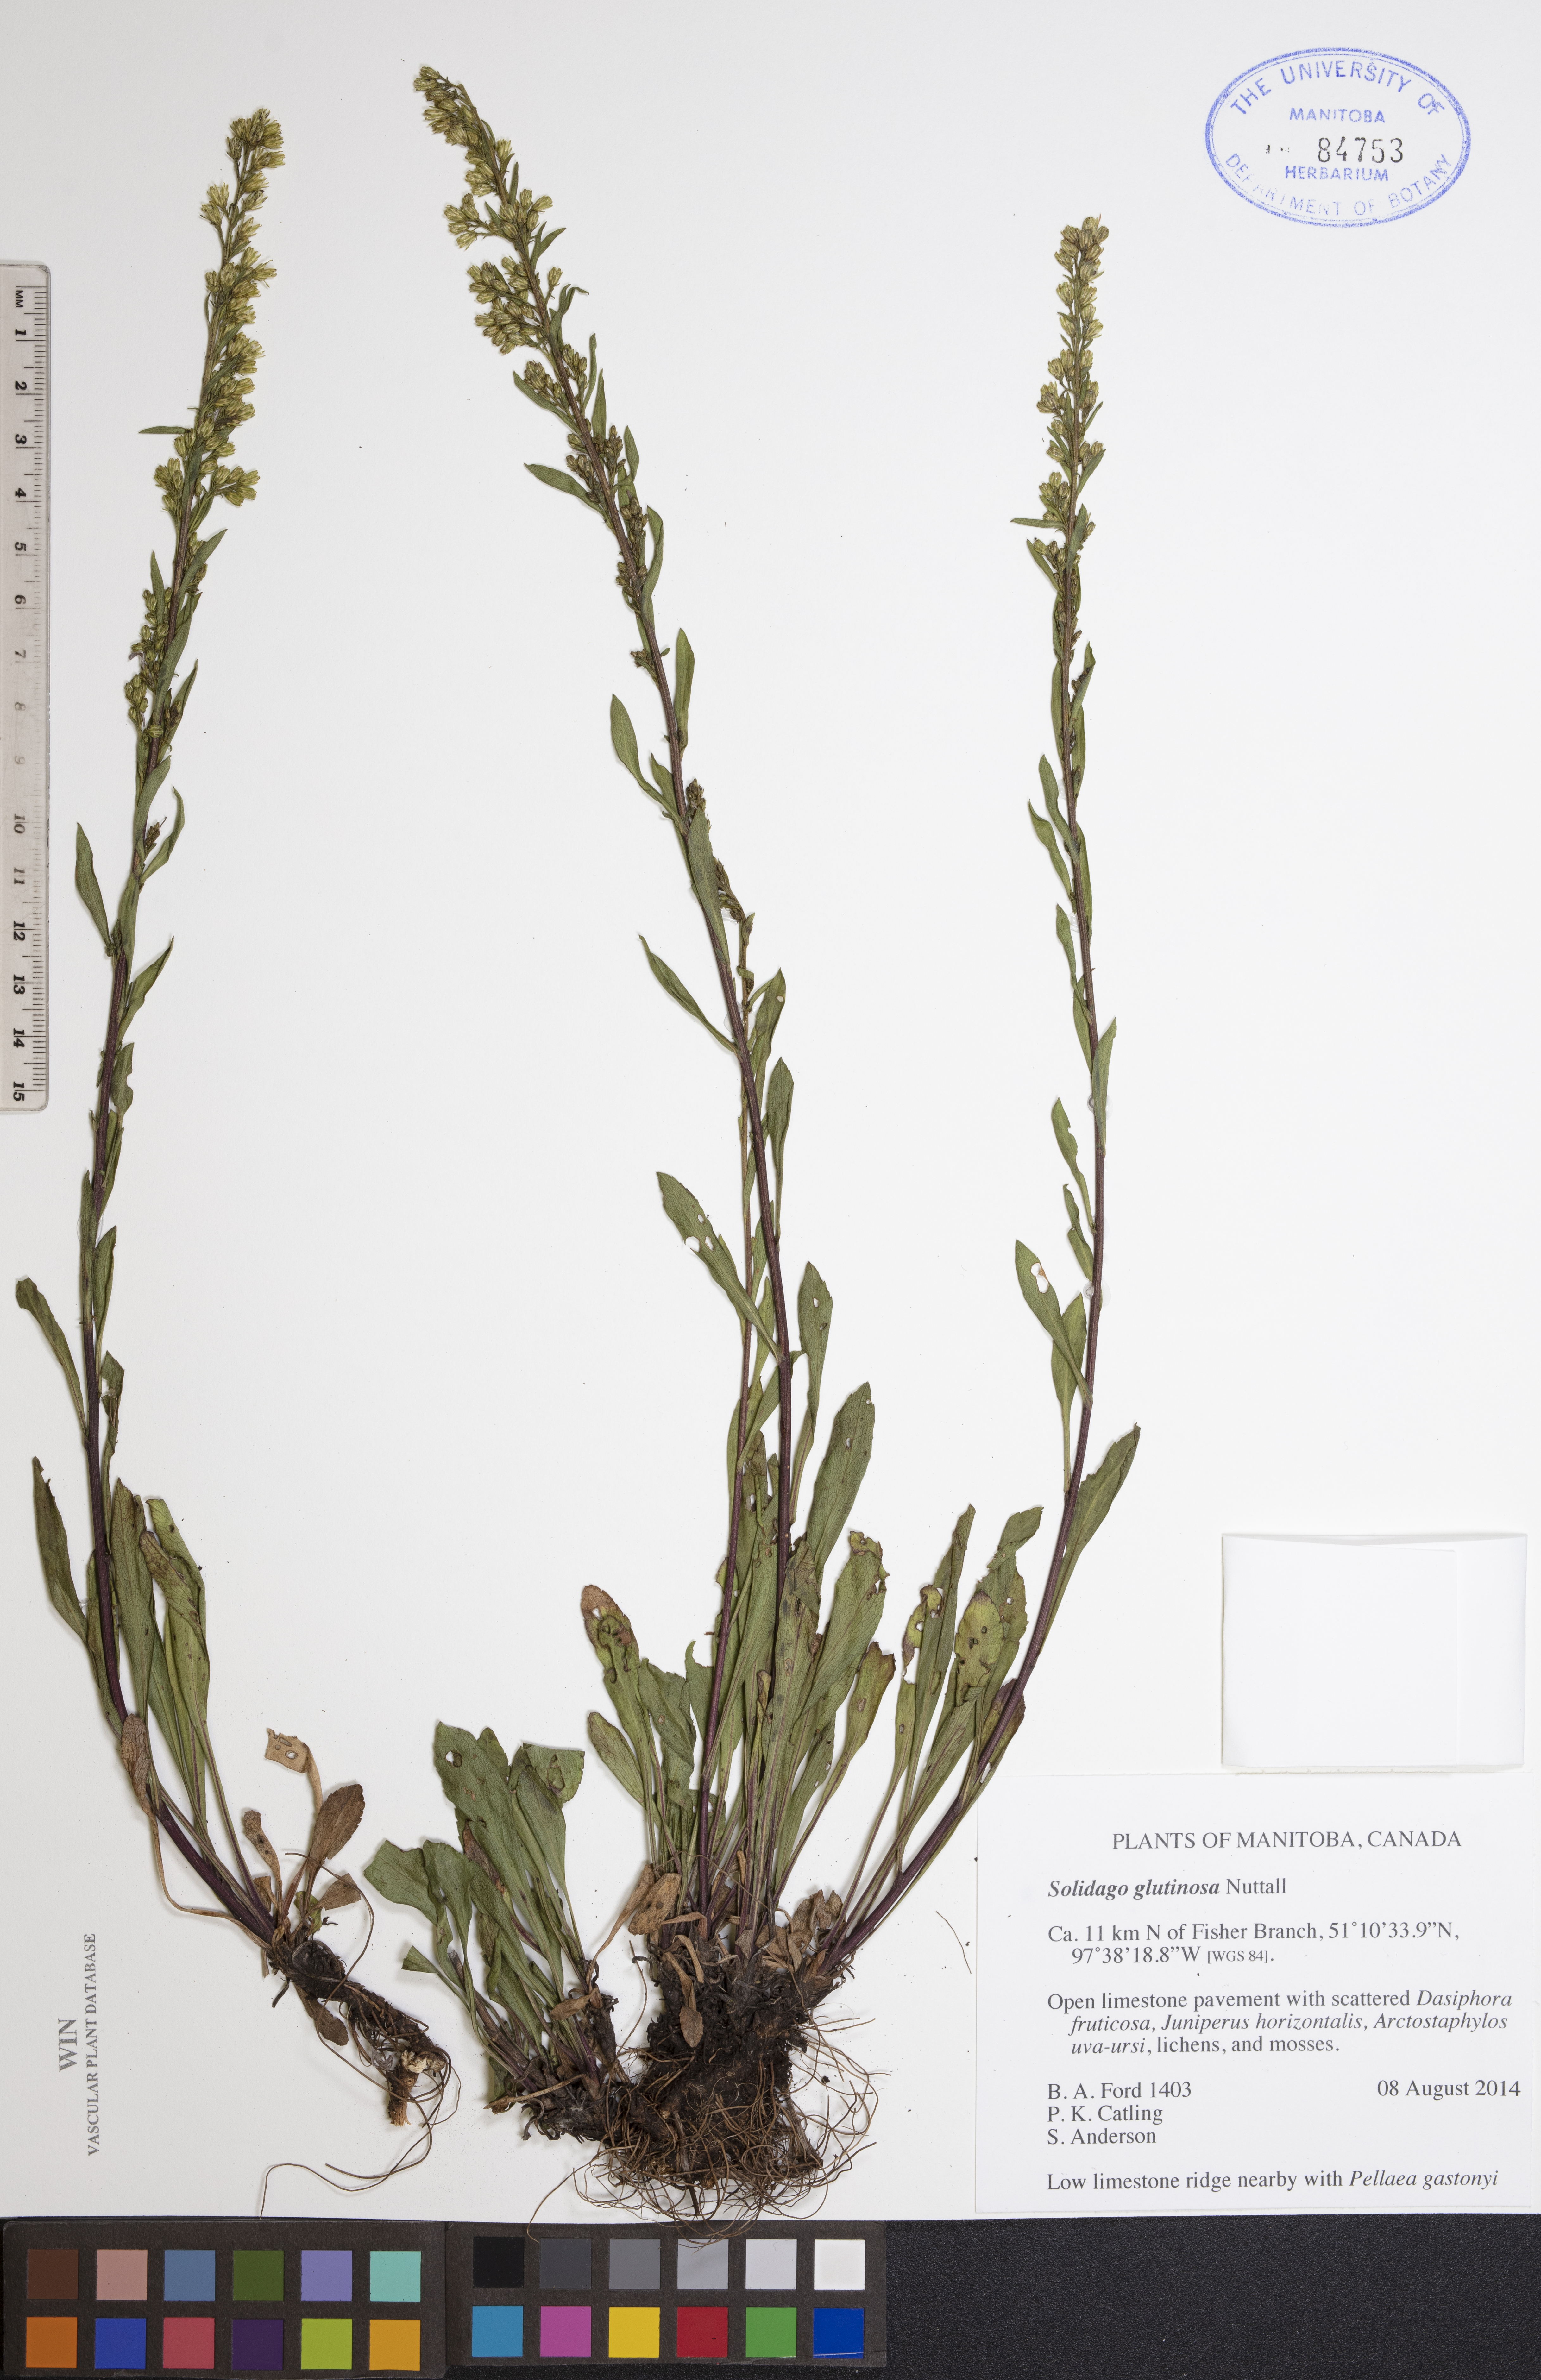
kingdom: Plantae
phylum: Tracheophyta
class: Magnoliopsida
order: Asterales
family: Asteraceae
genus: Solidago
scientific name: Solidago glutinosa
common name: Decumbent goldenrod
